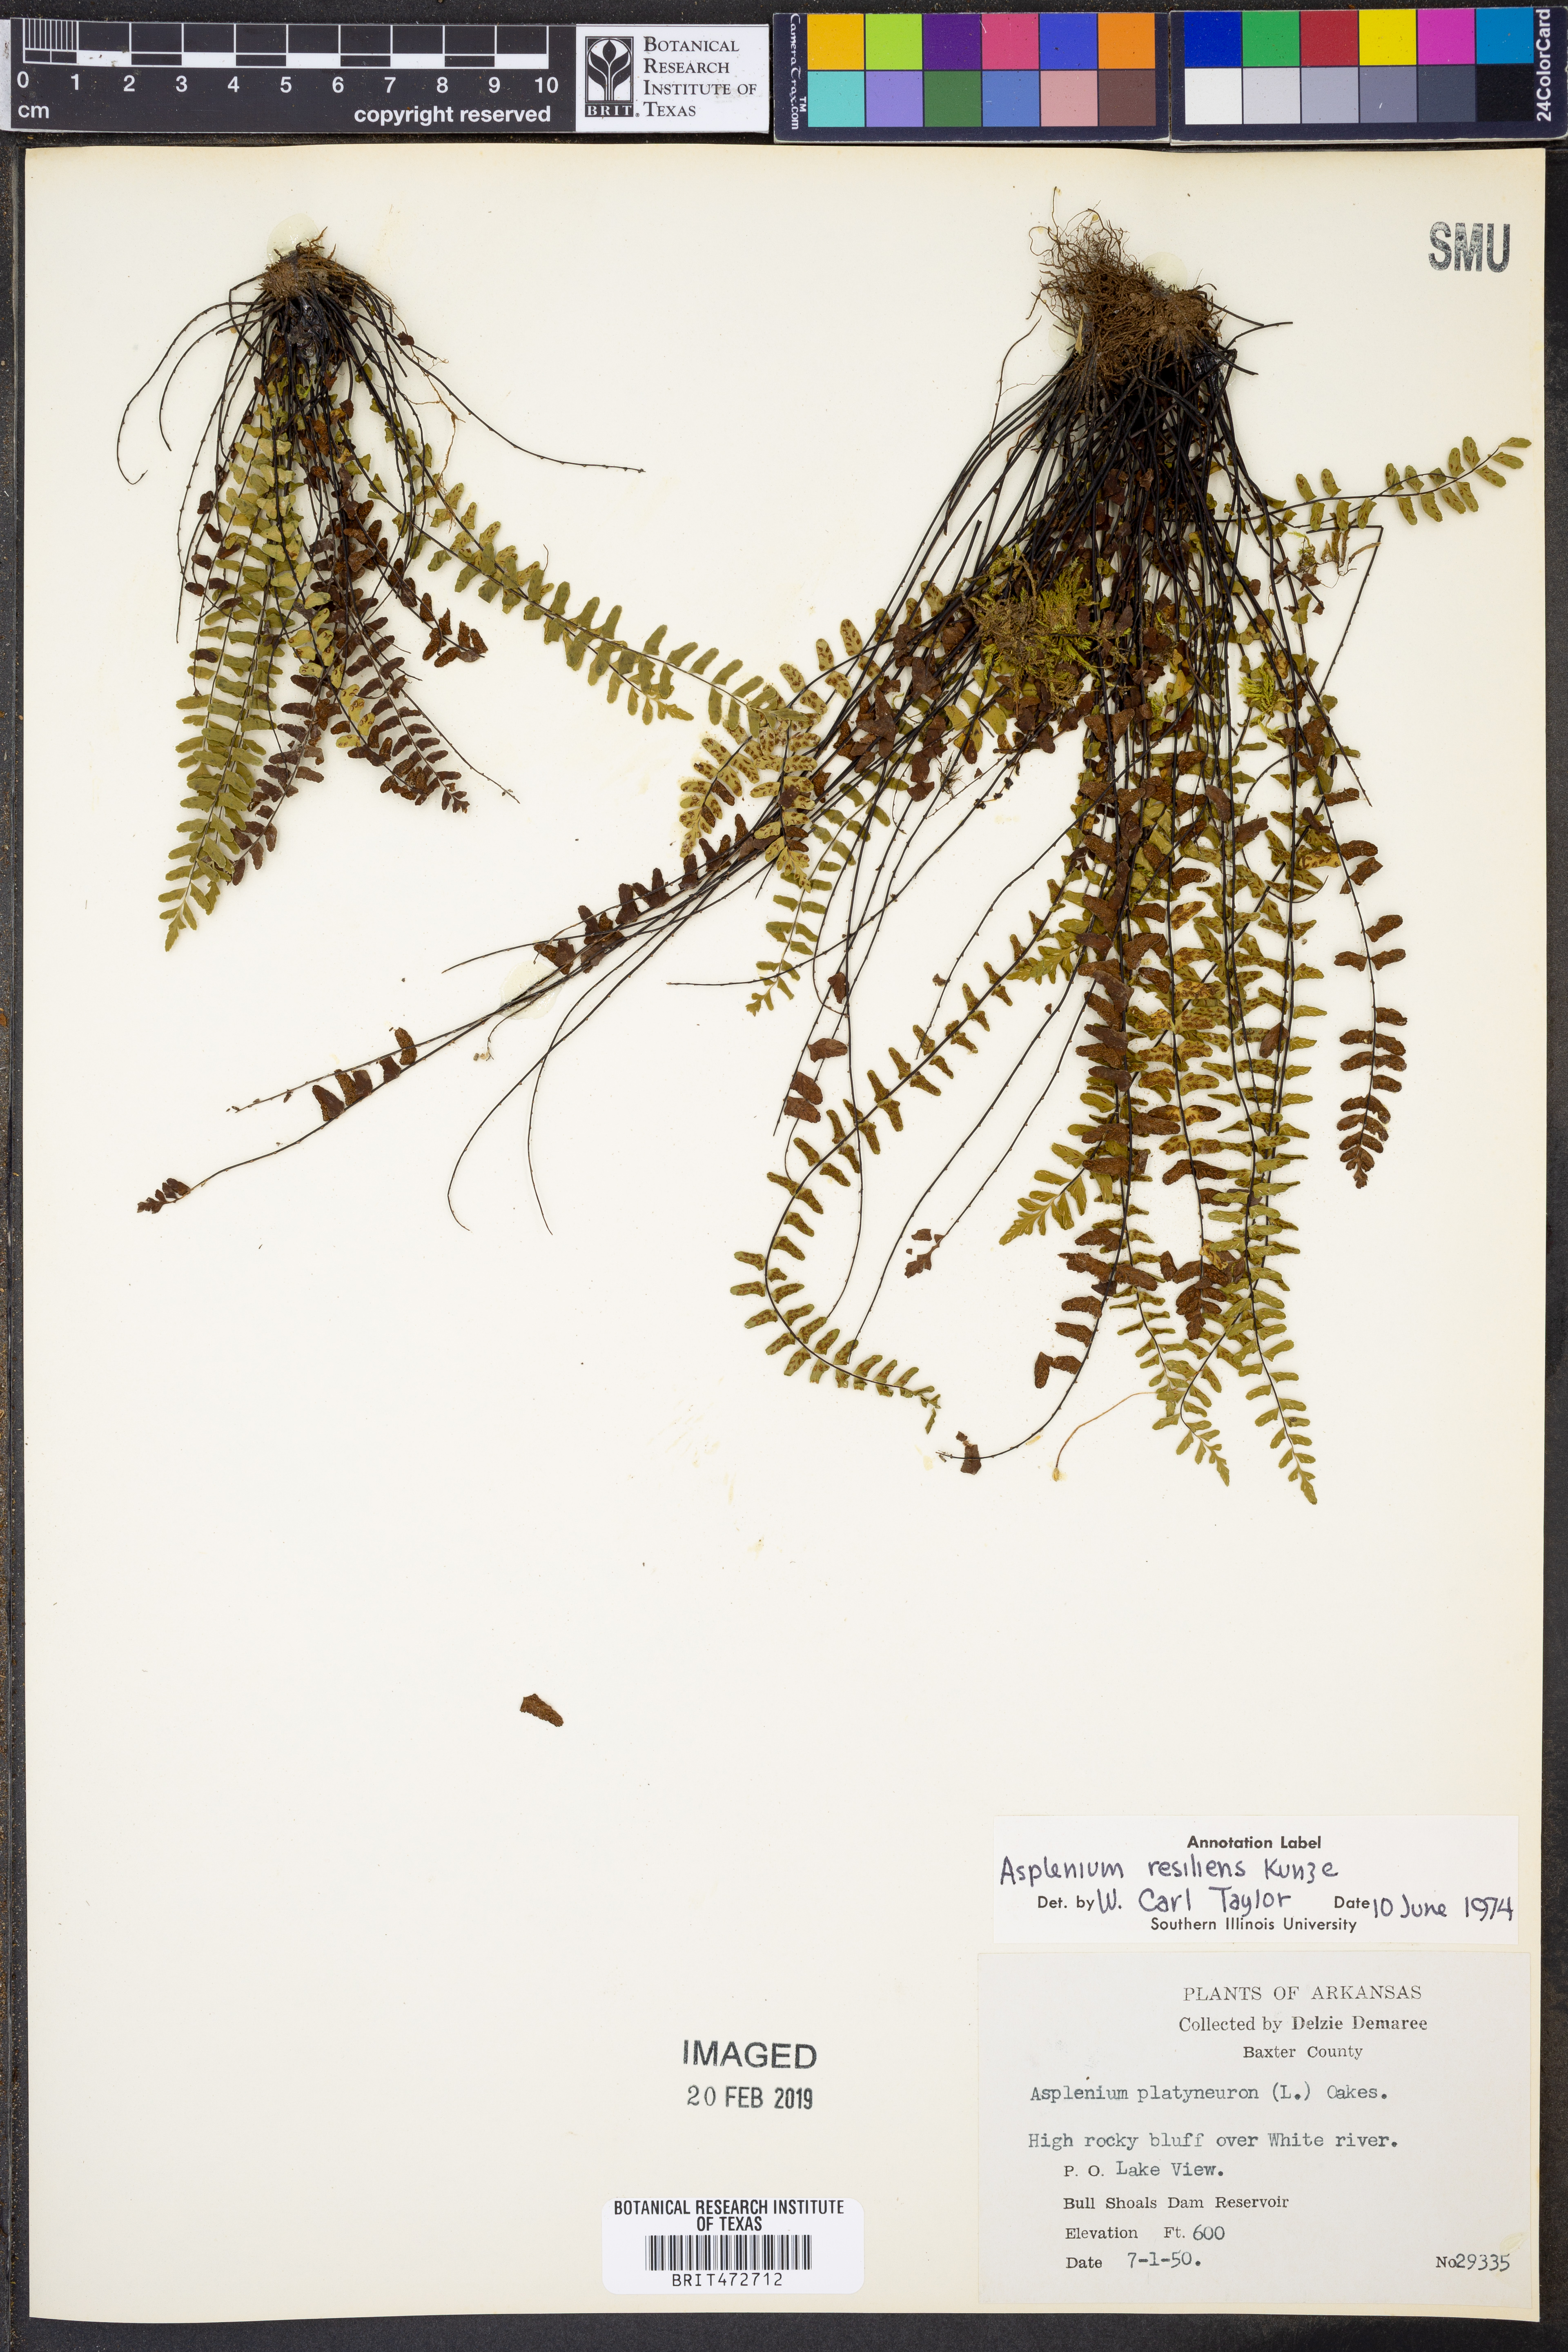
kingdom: Plantae
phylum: Tracheophyta
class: Polypodiopsida
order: Polypodiales
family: Aspleniaceae
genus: Asplenium
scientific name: Asplenium resiliens
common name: Blackstem spleenwort
